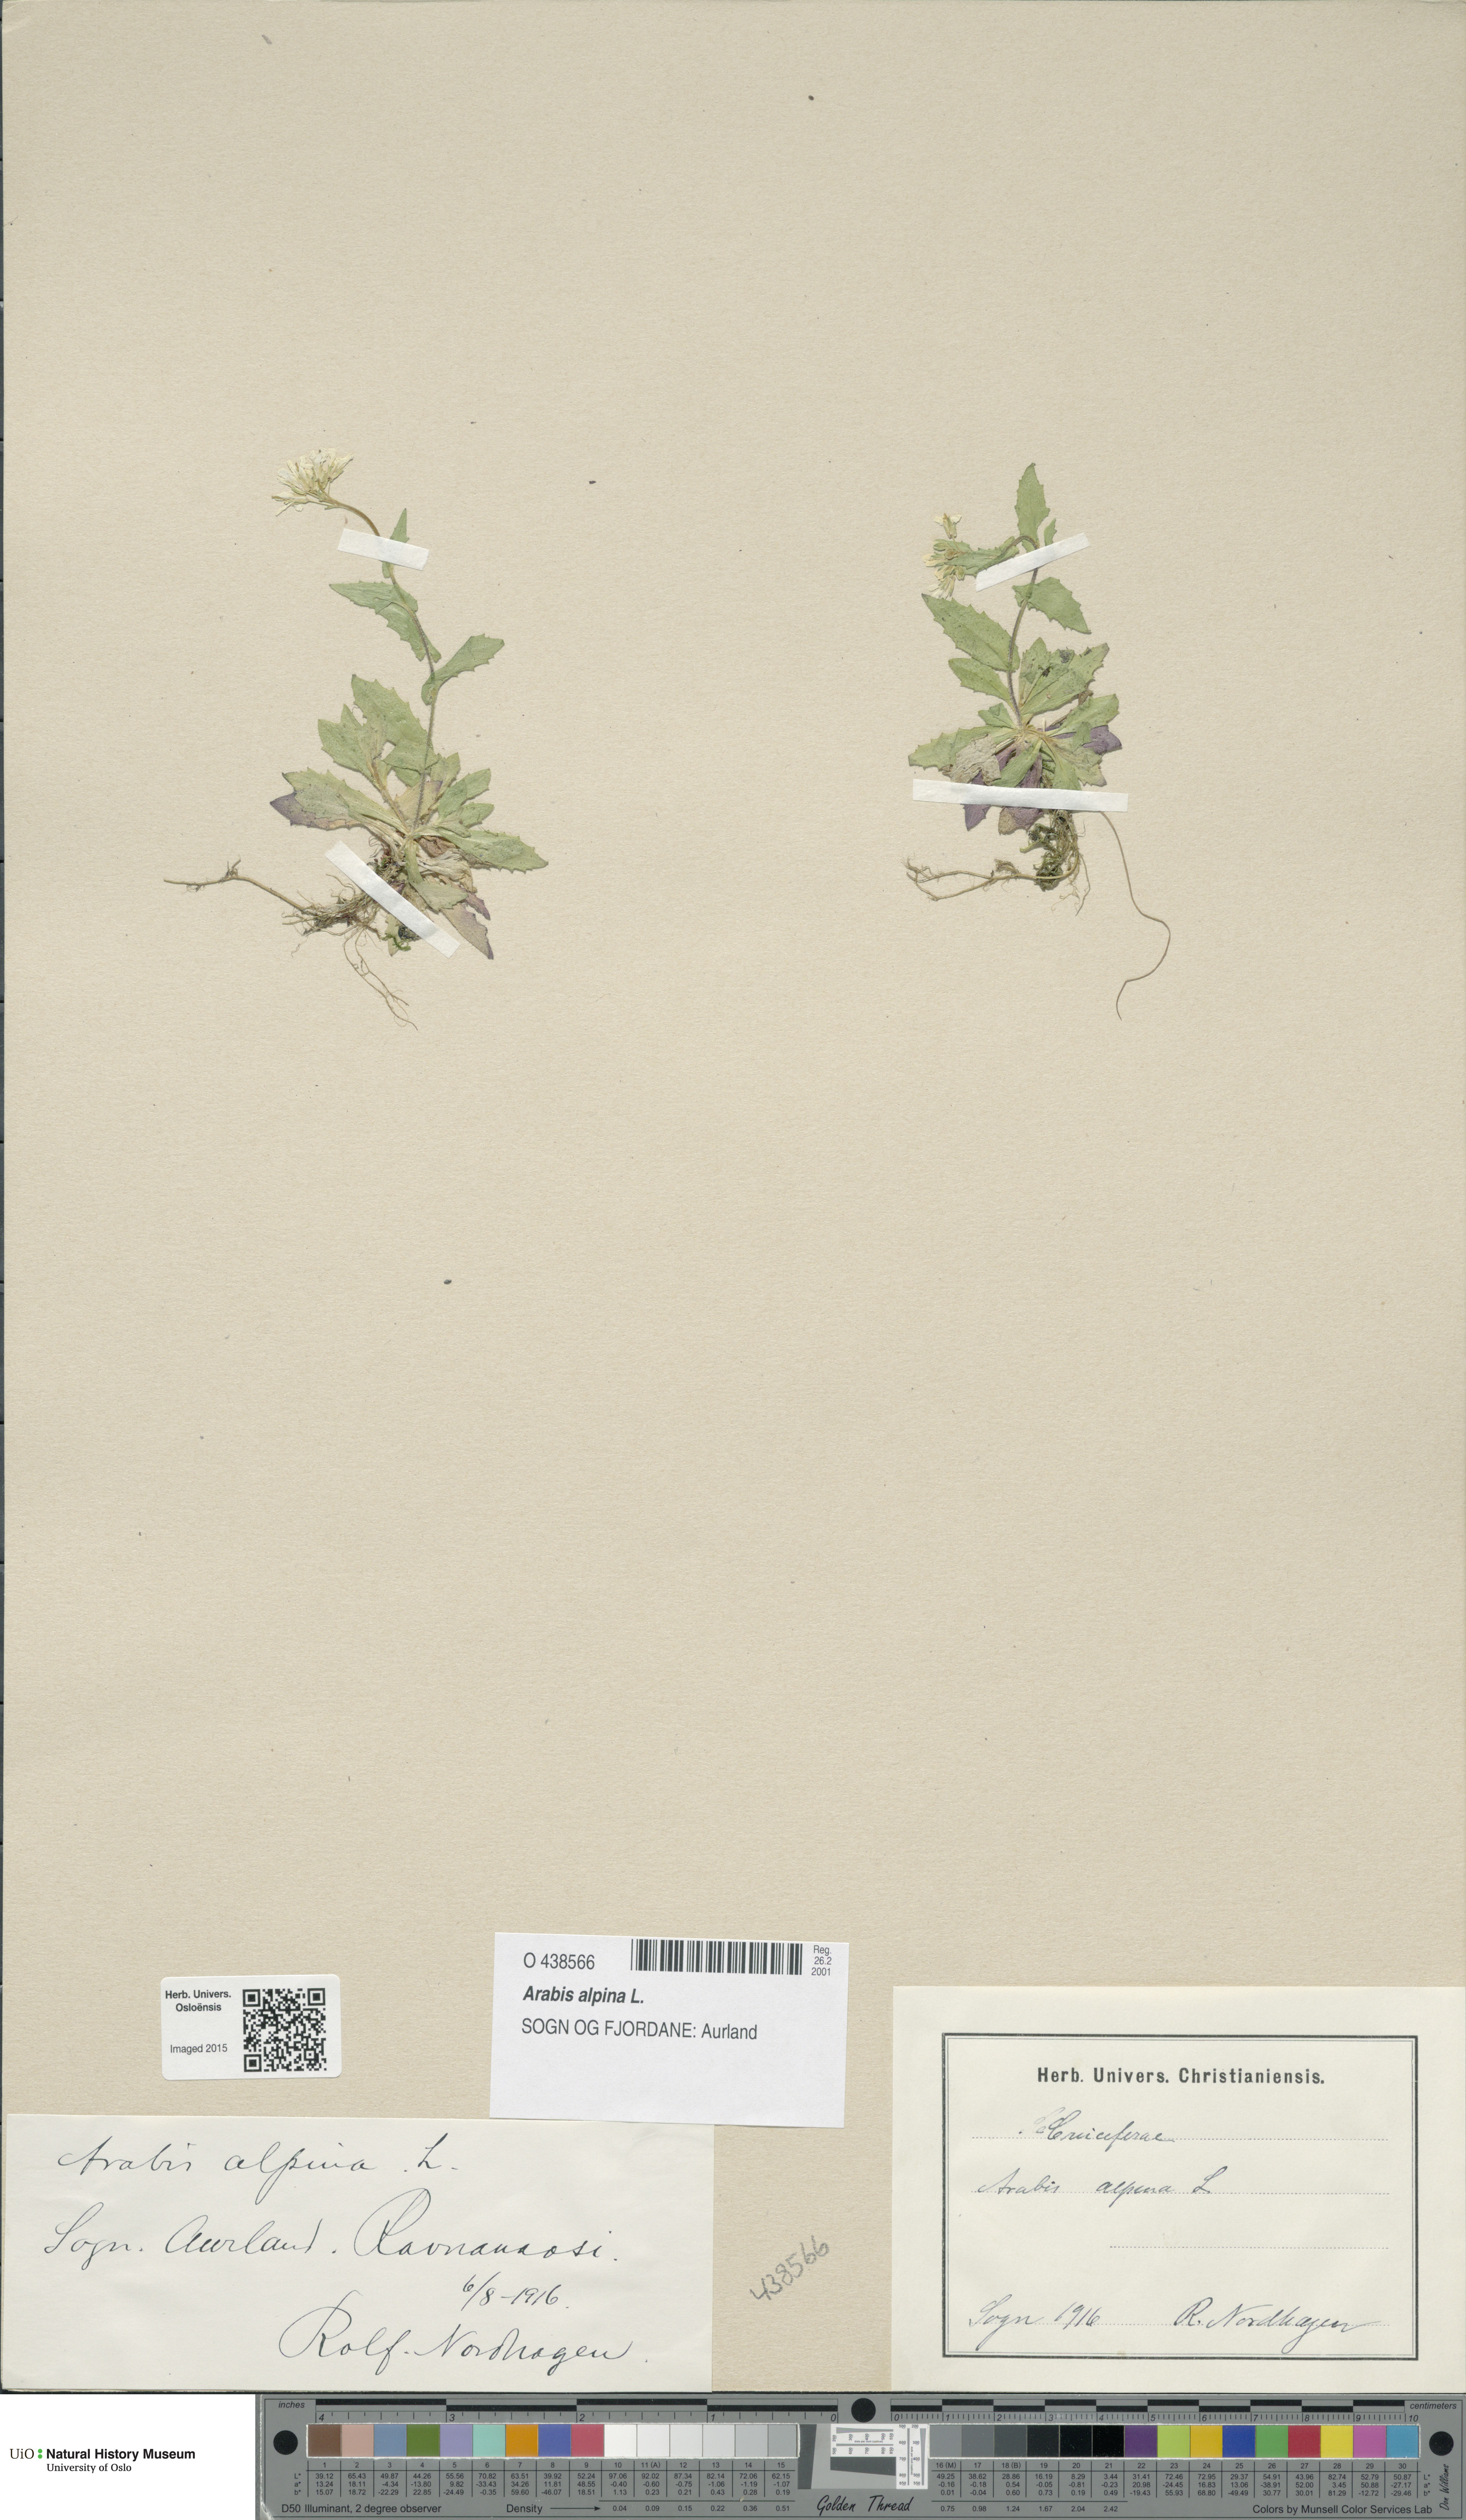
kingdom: Plantae
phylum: Tracheophyta
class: Magnoliopsida
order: Brassicales
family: Brassicaceae
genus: Arabis
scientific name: Arabis alpina
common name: Alpine rock-cress
